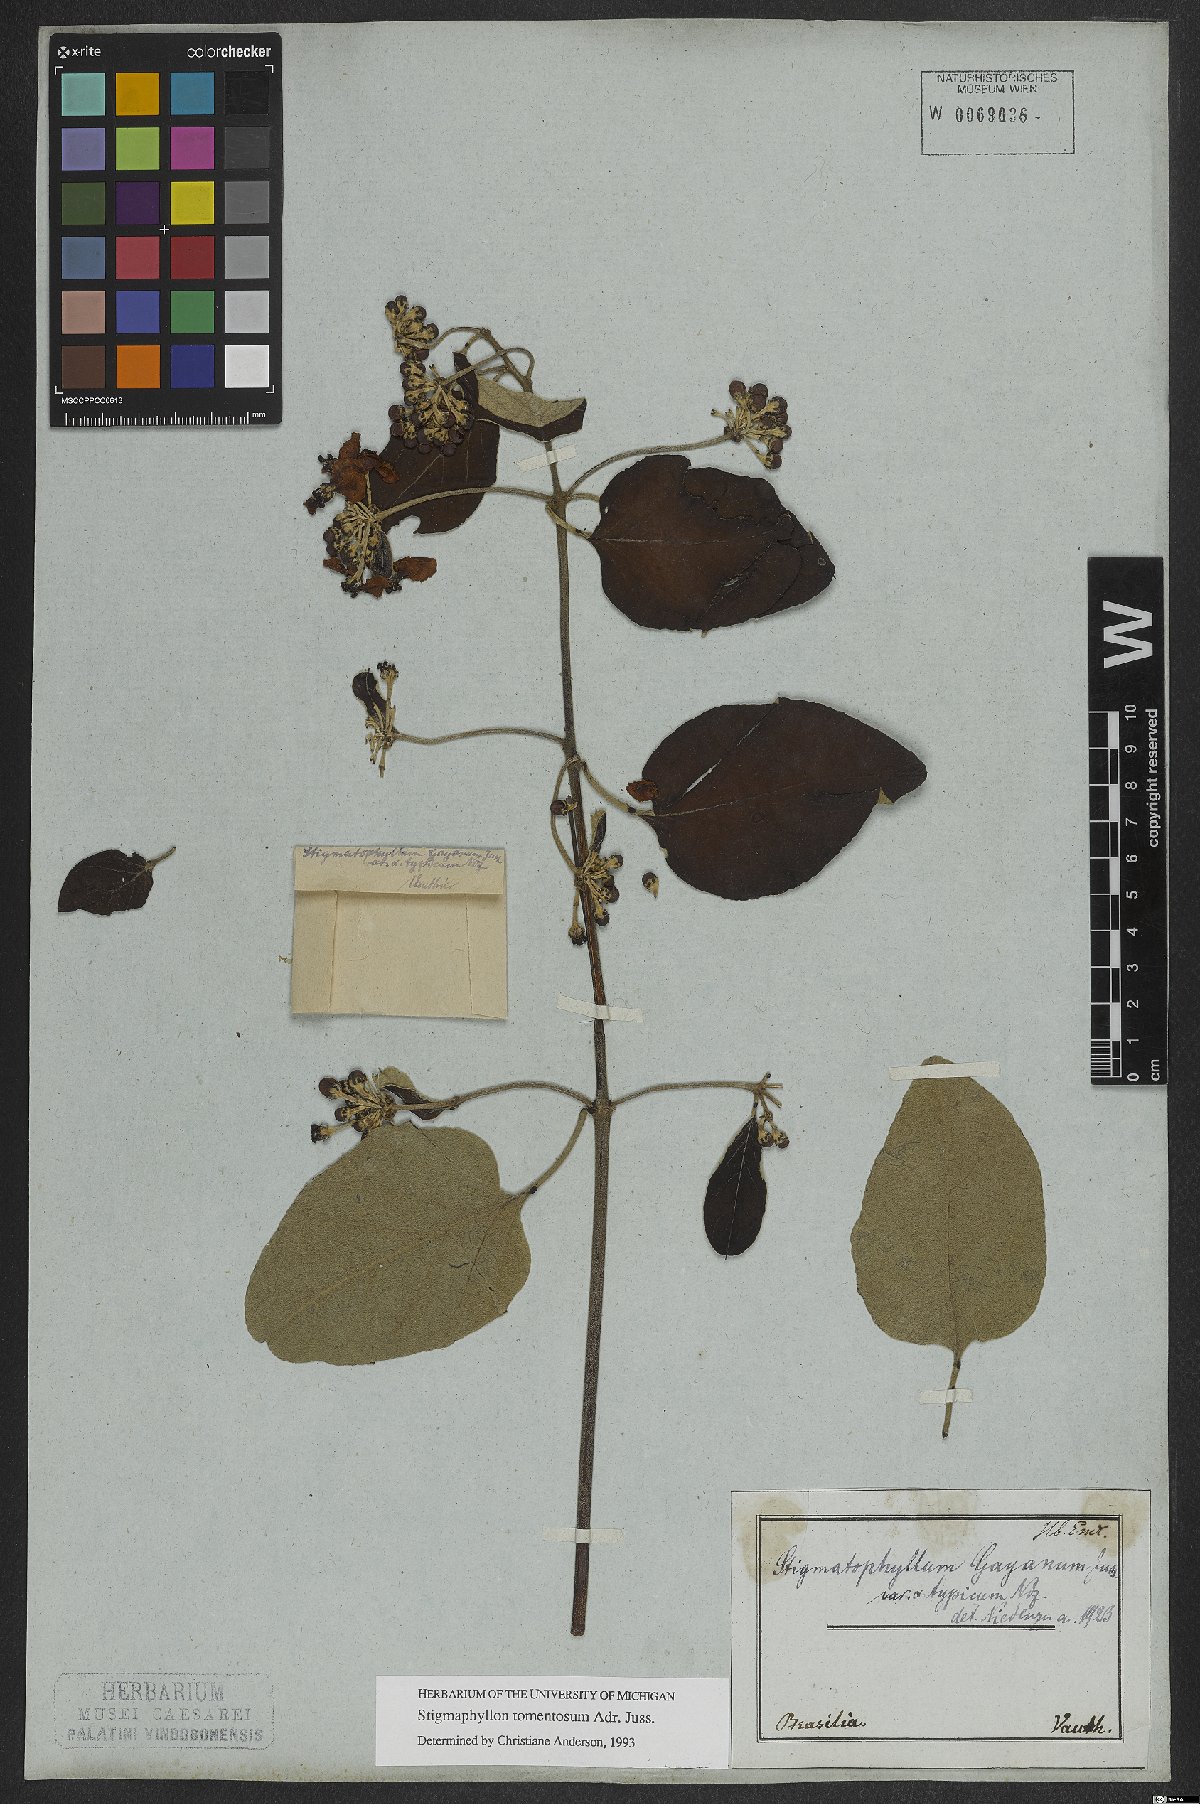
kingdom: Plantae
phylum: Tracheophyta
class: Magnoliopsida
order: Malpighiales
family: Malpighiaceae
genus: Stigmaphyllon
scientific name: Stigmaphyllon tomentosum
